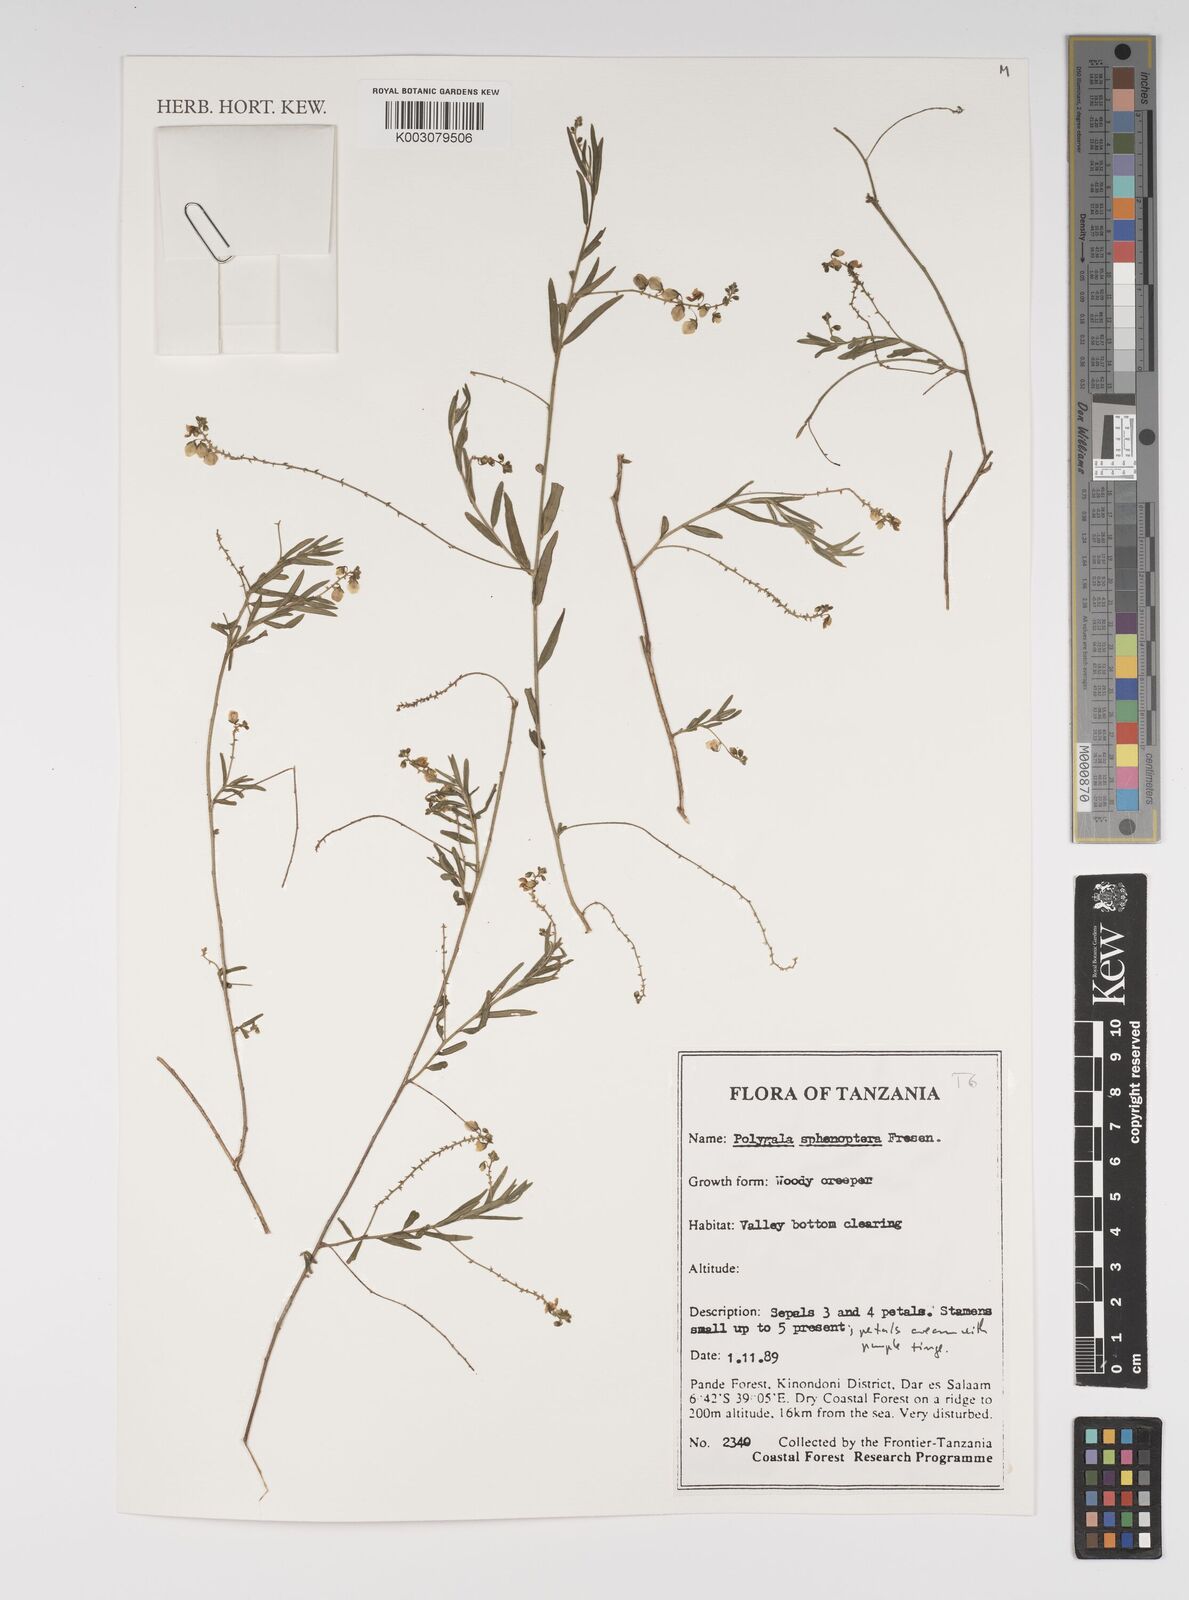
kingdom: Plantae
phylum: Tracheophyta
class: Magnoliopsida
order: Fabales
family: Polygalaceae
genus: Polygala
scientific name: Polygala sphenoptera
